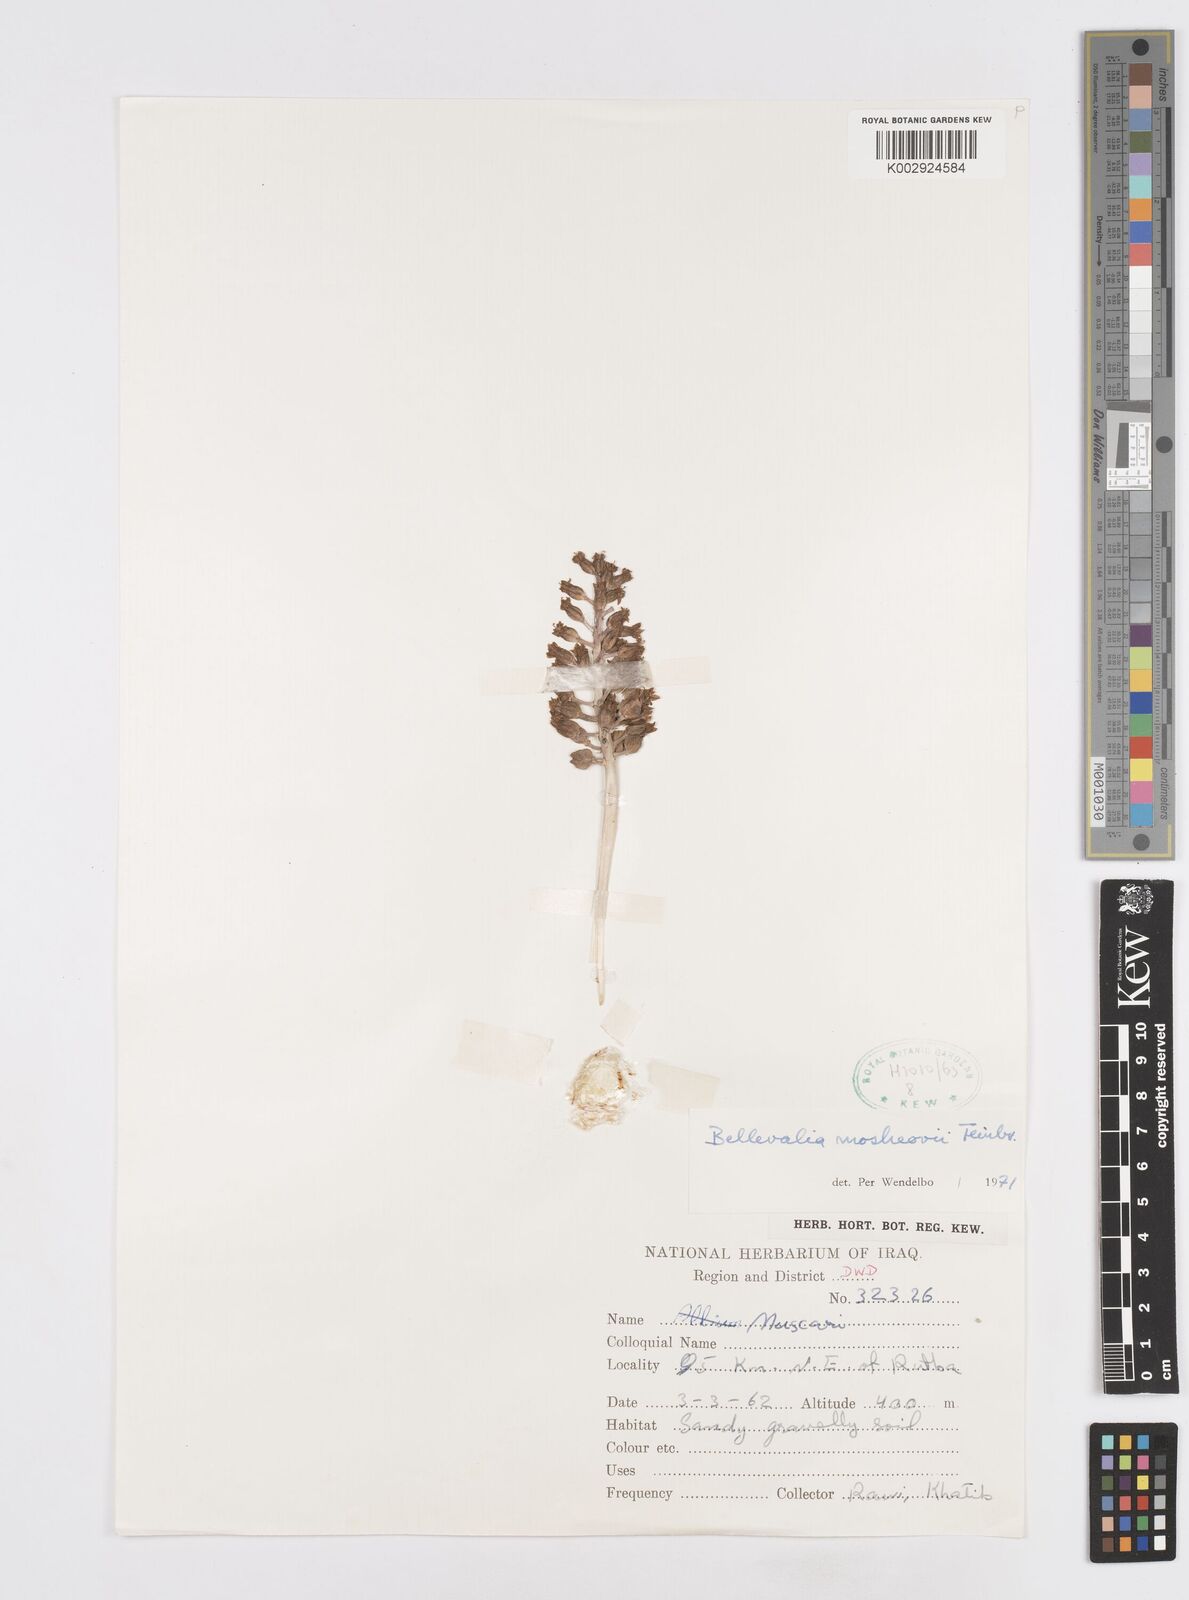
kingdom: Plantae
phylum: Tracheophyta
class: Liliopsida
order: Asparagales
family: Asparagaceae
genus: Bellevalia
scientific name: Bellevalia mosheovii
